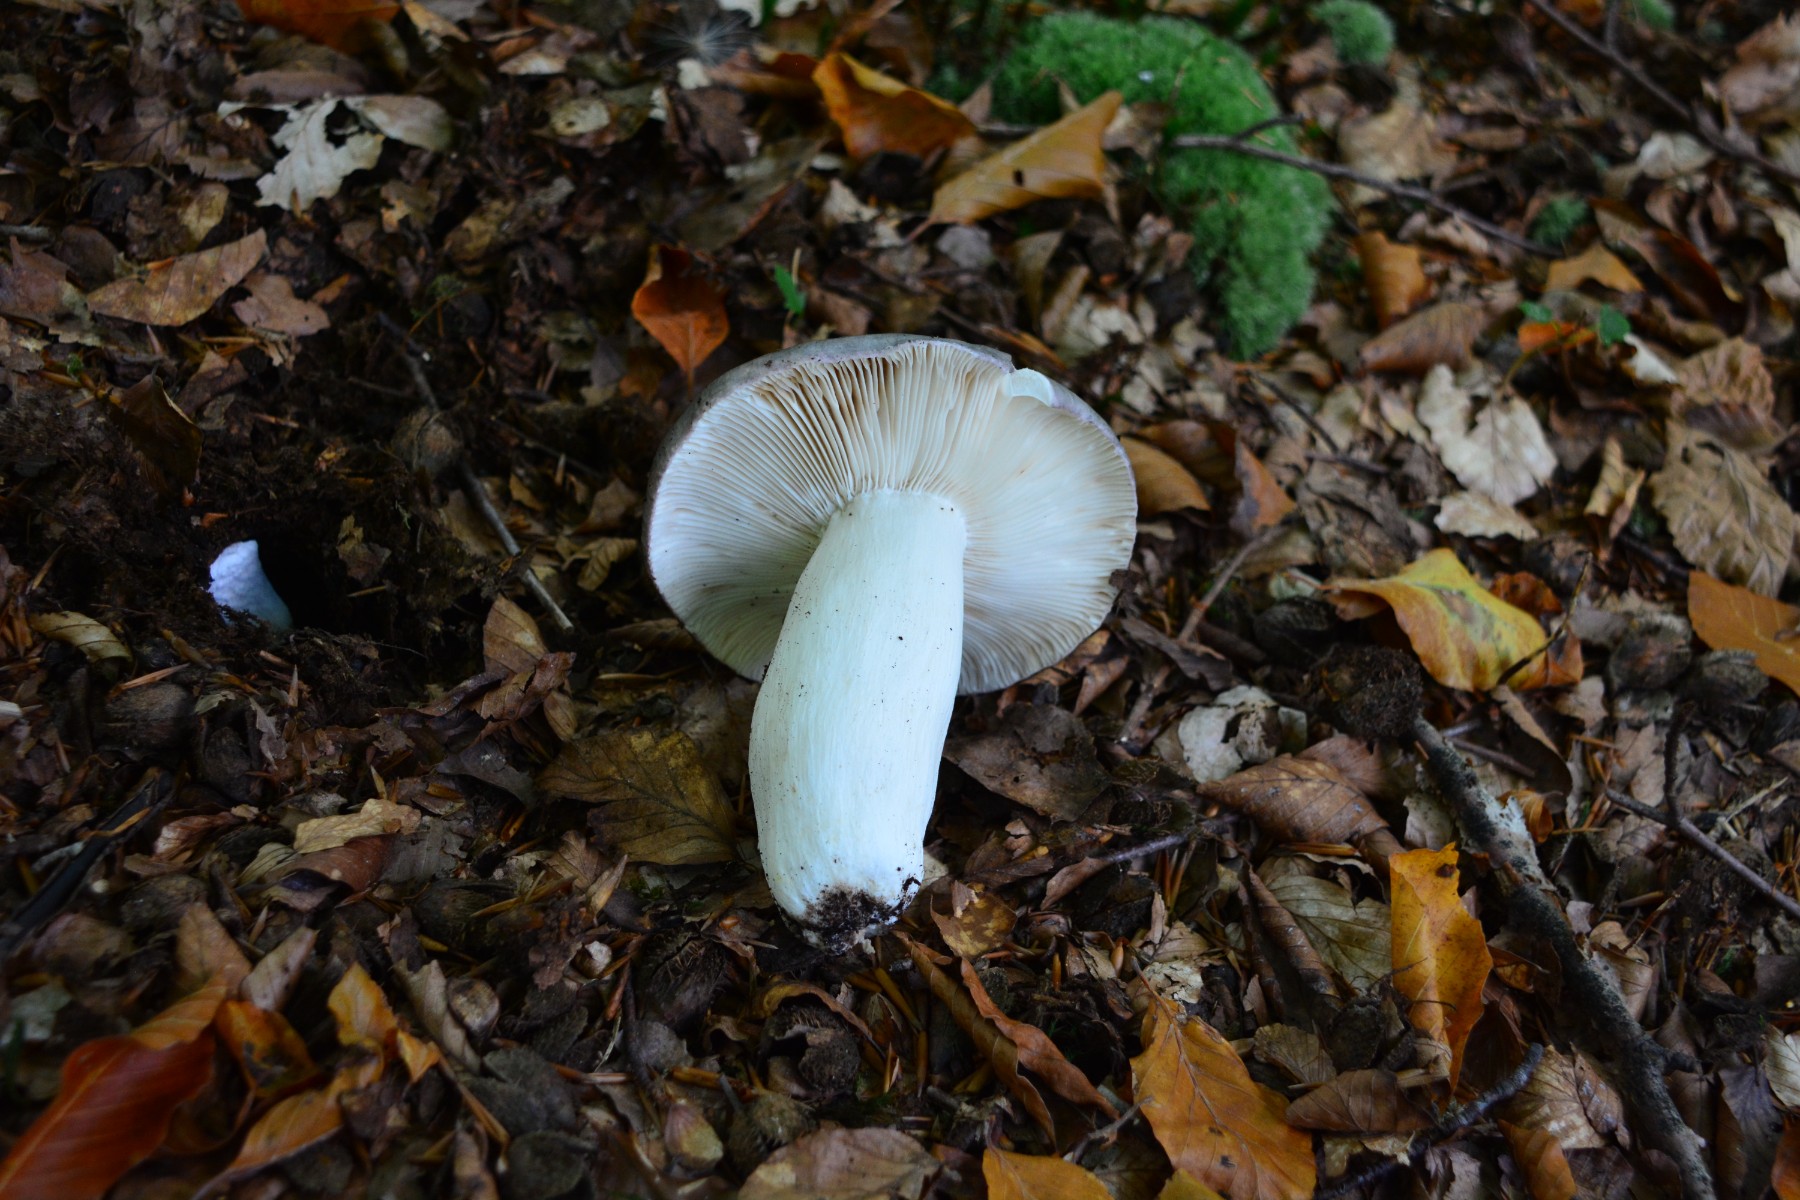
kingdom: Fungi
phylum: Basidiomycota
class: Agaricomycetes
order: Russulales
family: Russulaceae
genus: Russula
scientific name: Russula cyanoxantha
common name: broget skørhat
